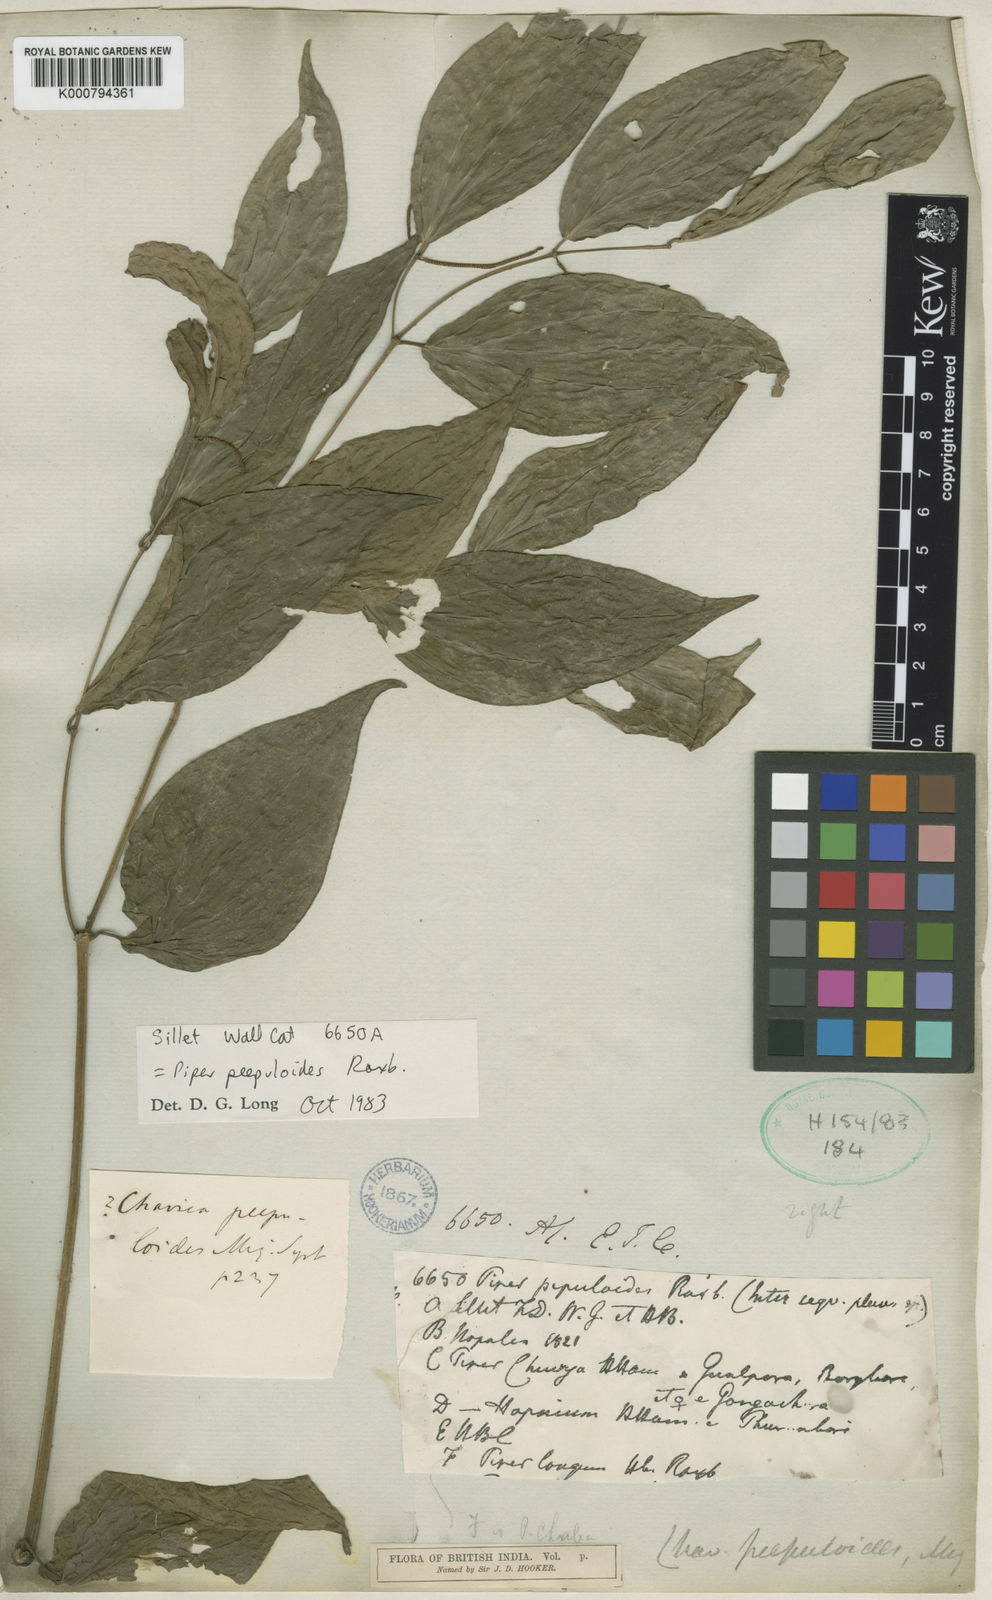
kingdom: Plantae
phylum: Tracheophyta
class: Magnoliopsida
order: Piperales
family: Piperaceae
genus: Piper
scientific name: Piper peepuloides
